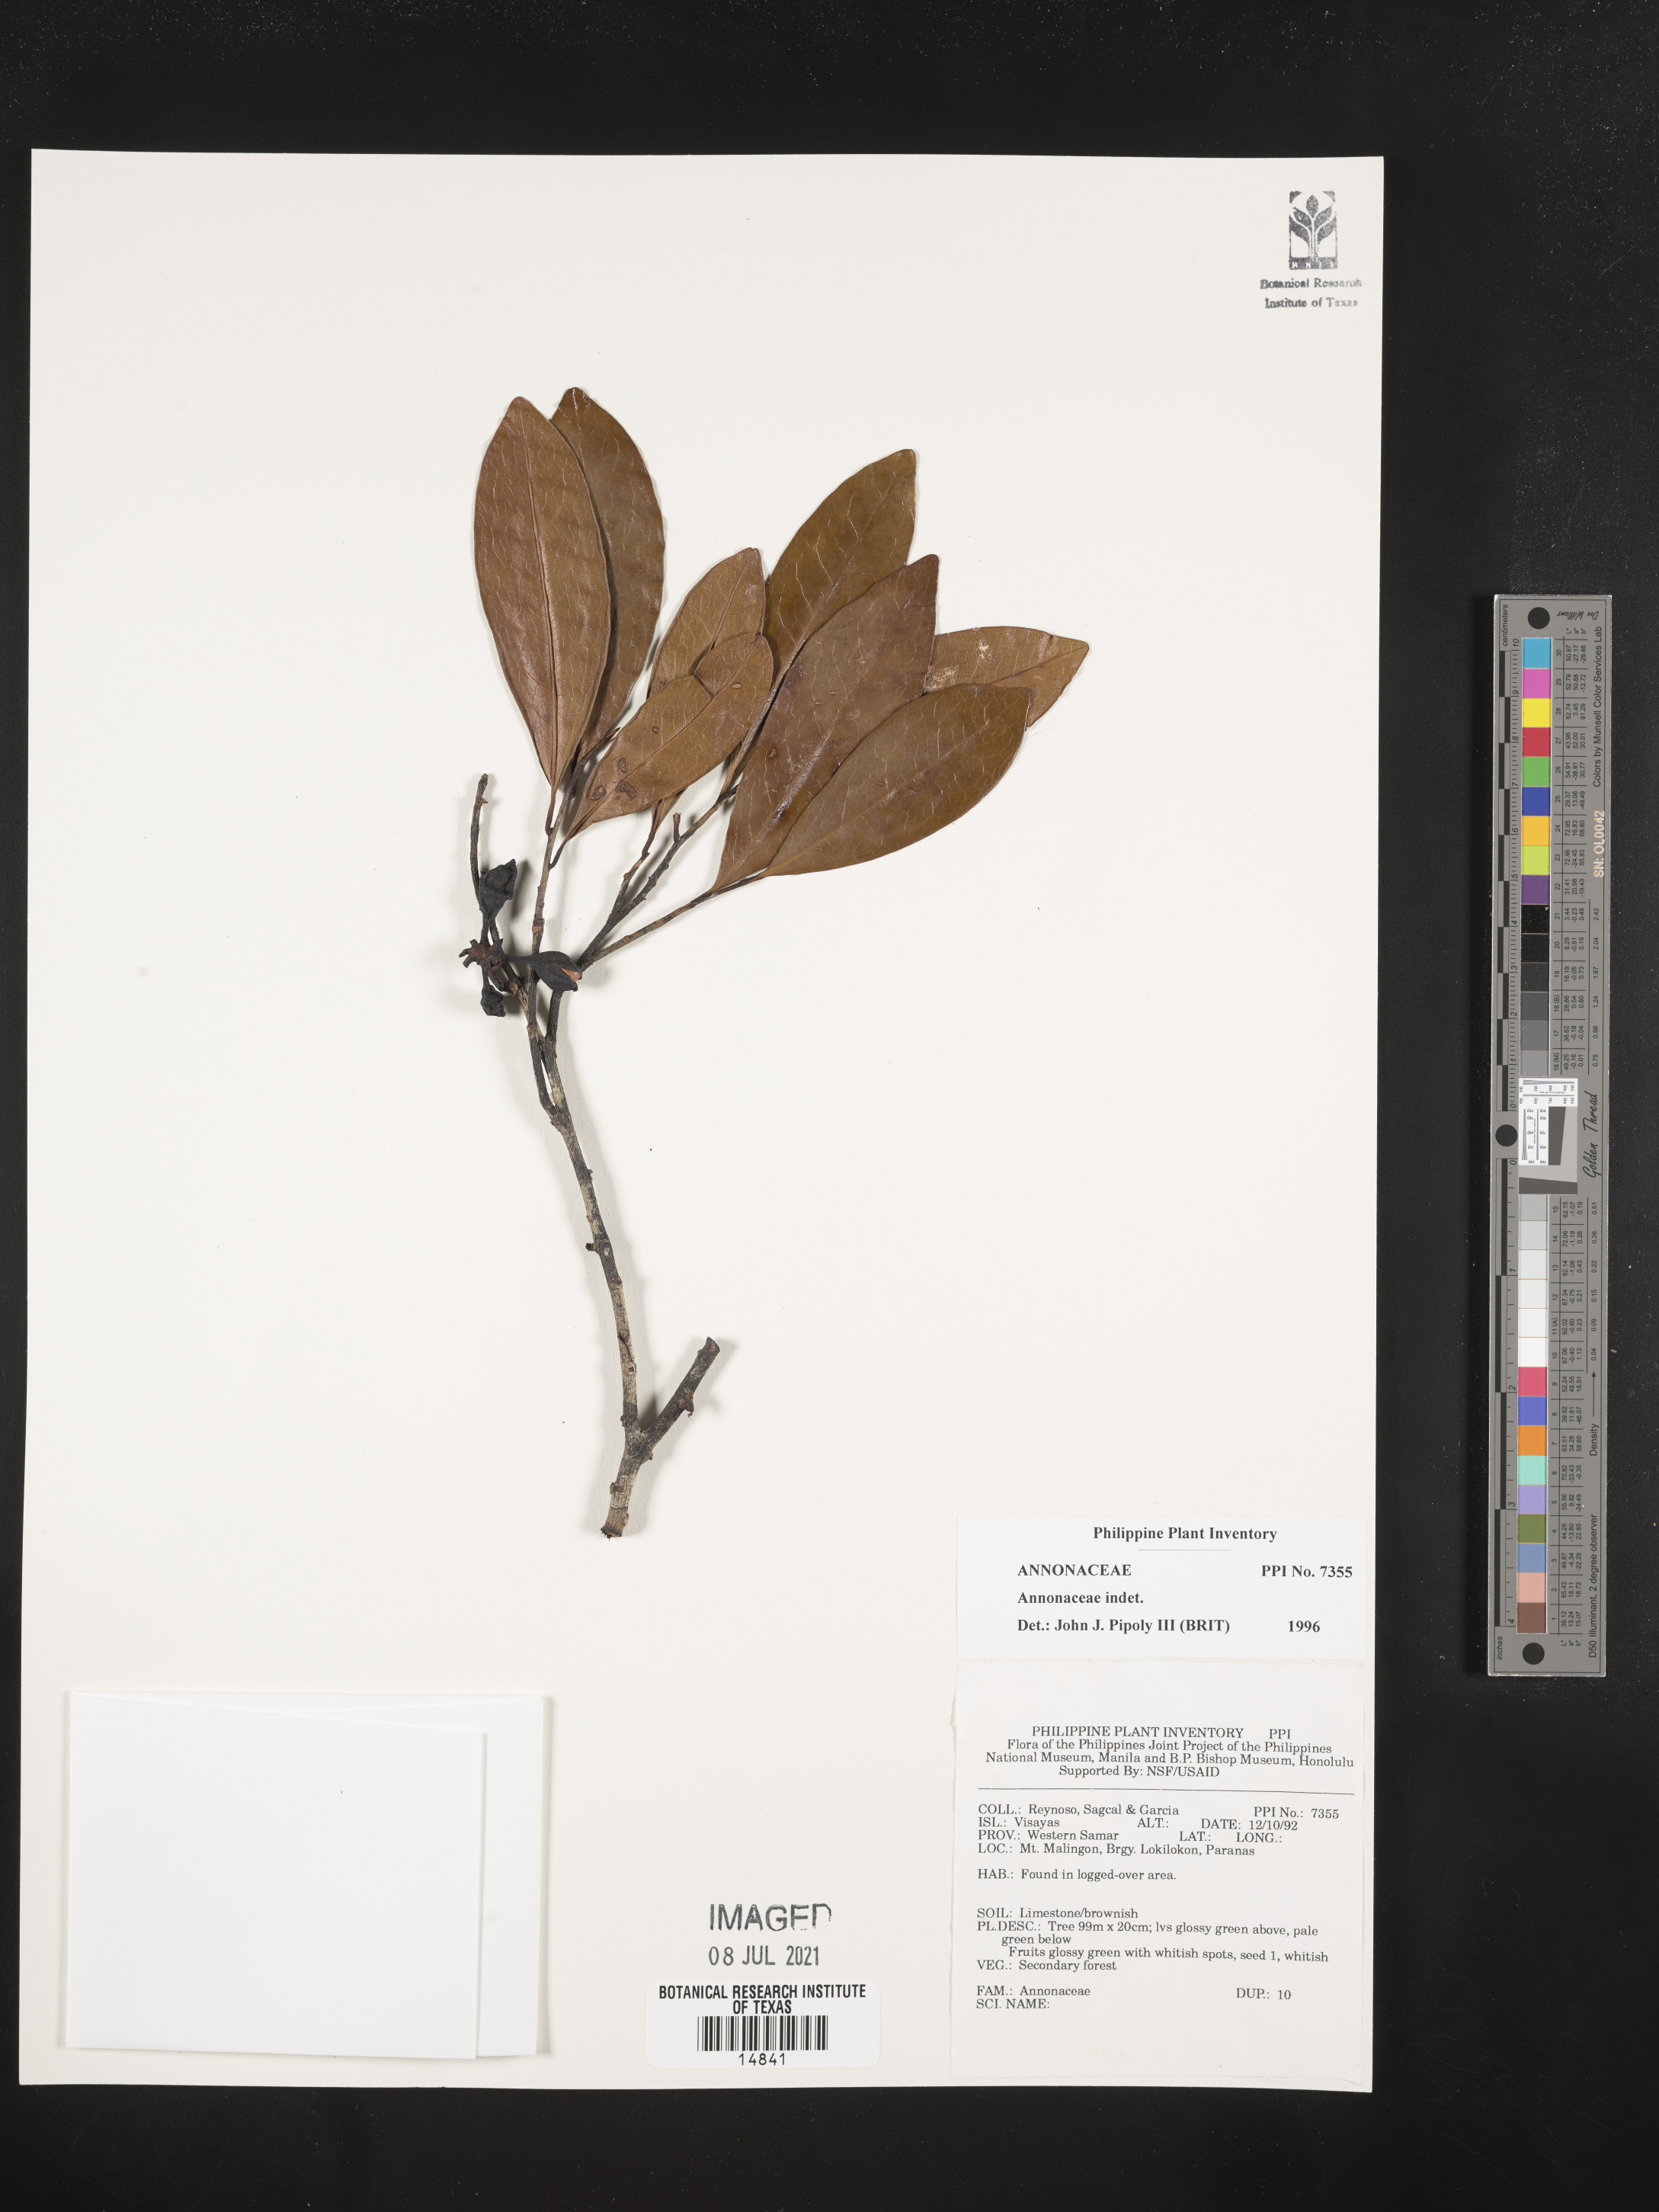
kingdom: Plantae
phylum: Tracheophyta
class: Magnoliopsida
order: Magnoliales
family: Annonaceae
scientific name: Annonaceae
